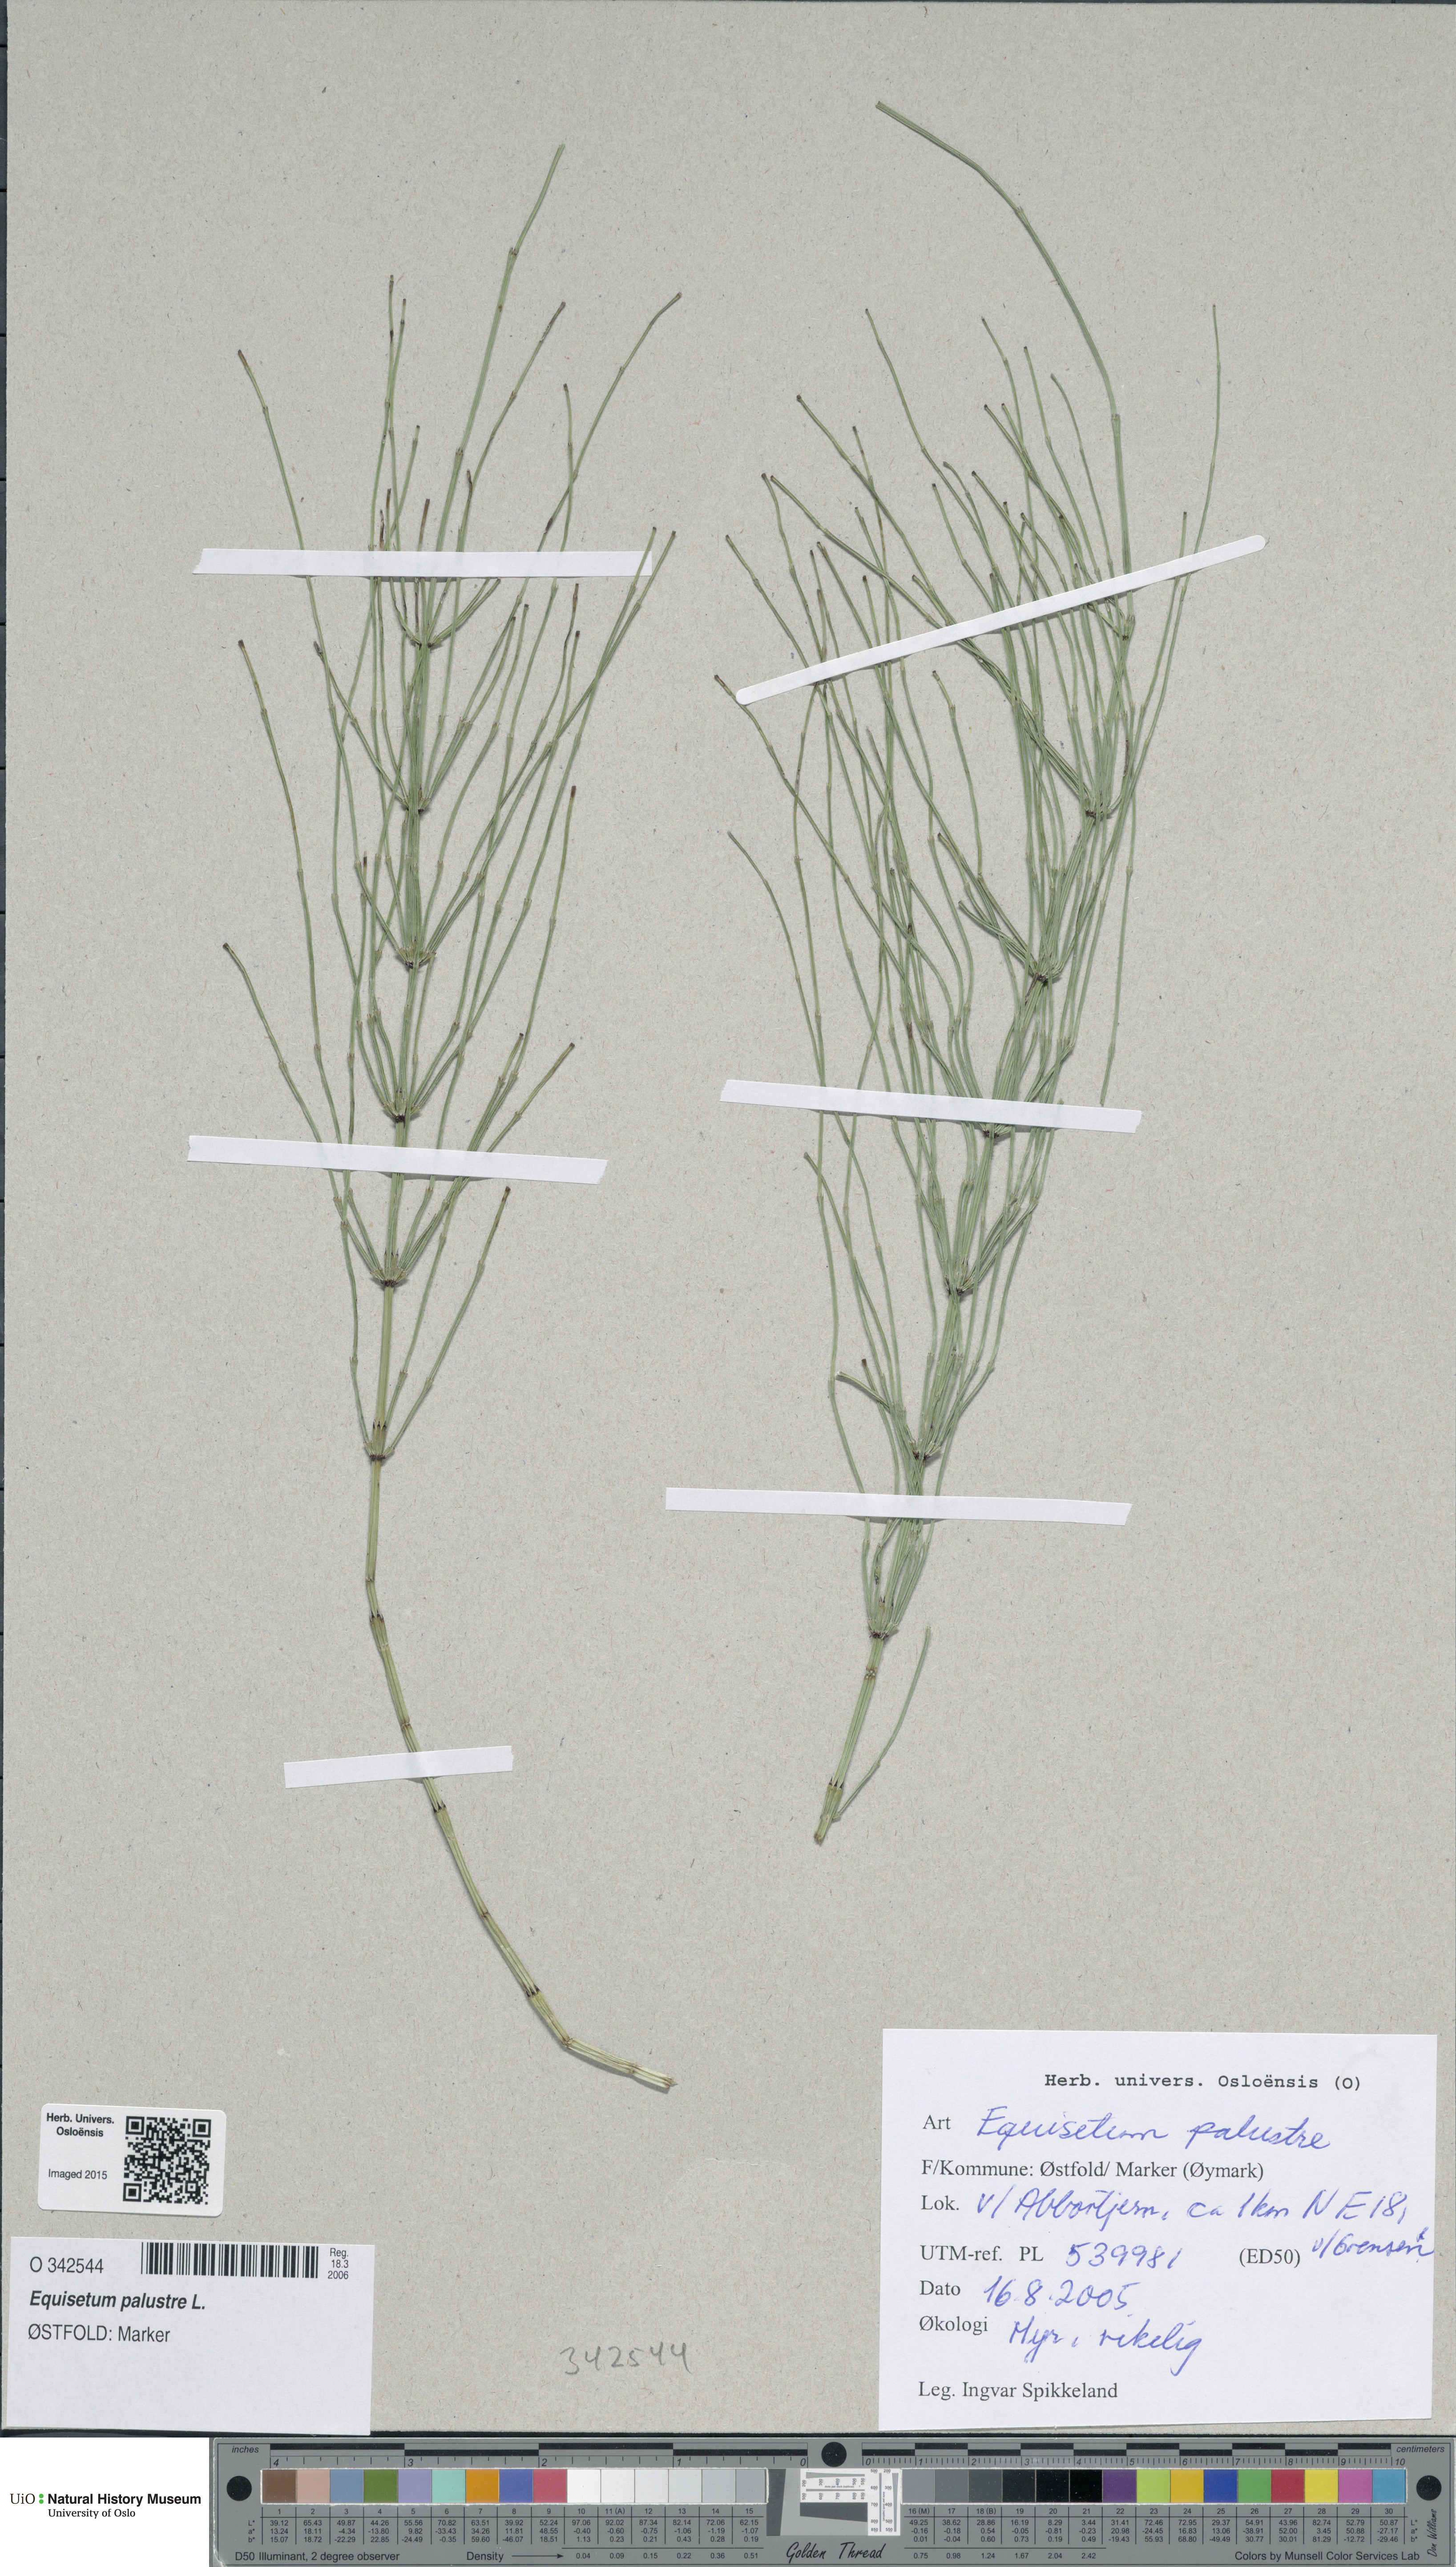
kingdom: Plantae
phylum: Tracheophyta
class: Polypodiopsida
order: Equisetales
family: Equisetaceae
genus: Equisetum
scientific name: Equisetum palustre
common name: Marsh horsetail
